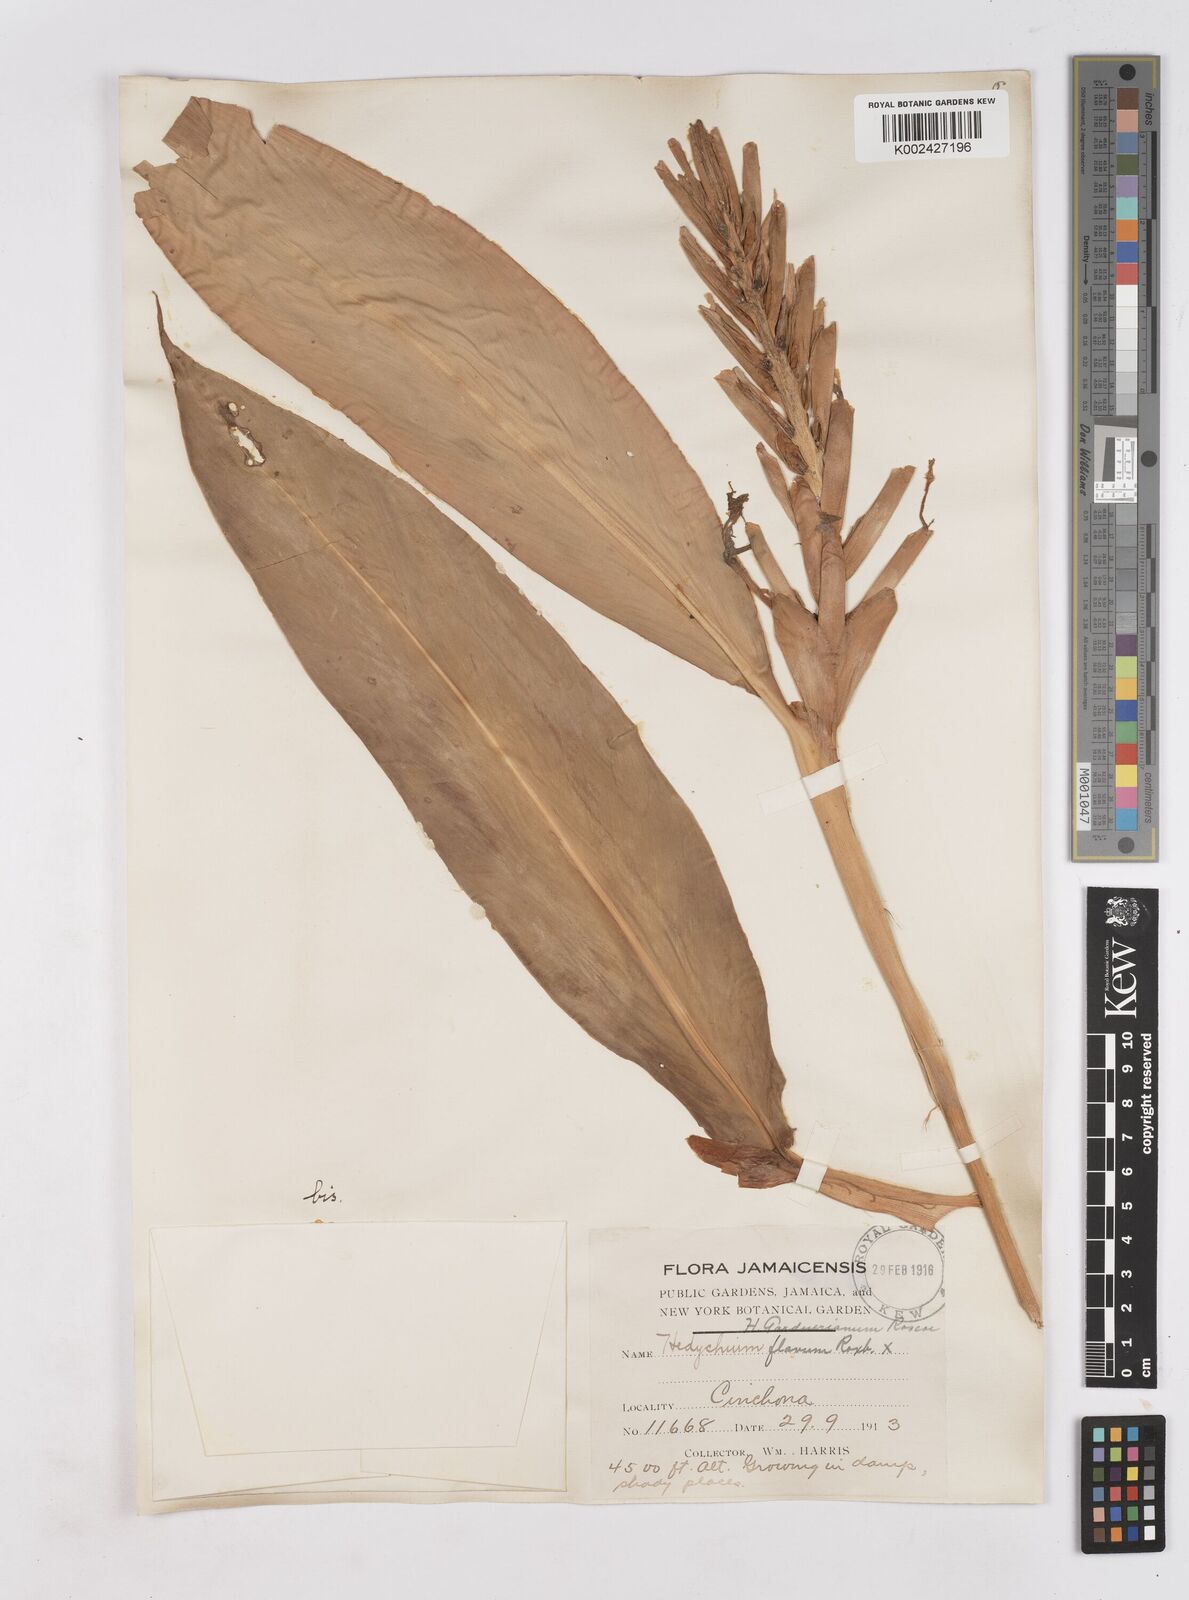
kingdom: Plantae
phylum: Tracheophyta
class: Liliopsida
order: Zingiberales
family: Zingiberaceae
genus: Hedychium
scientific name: Hedychium flavum
